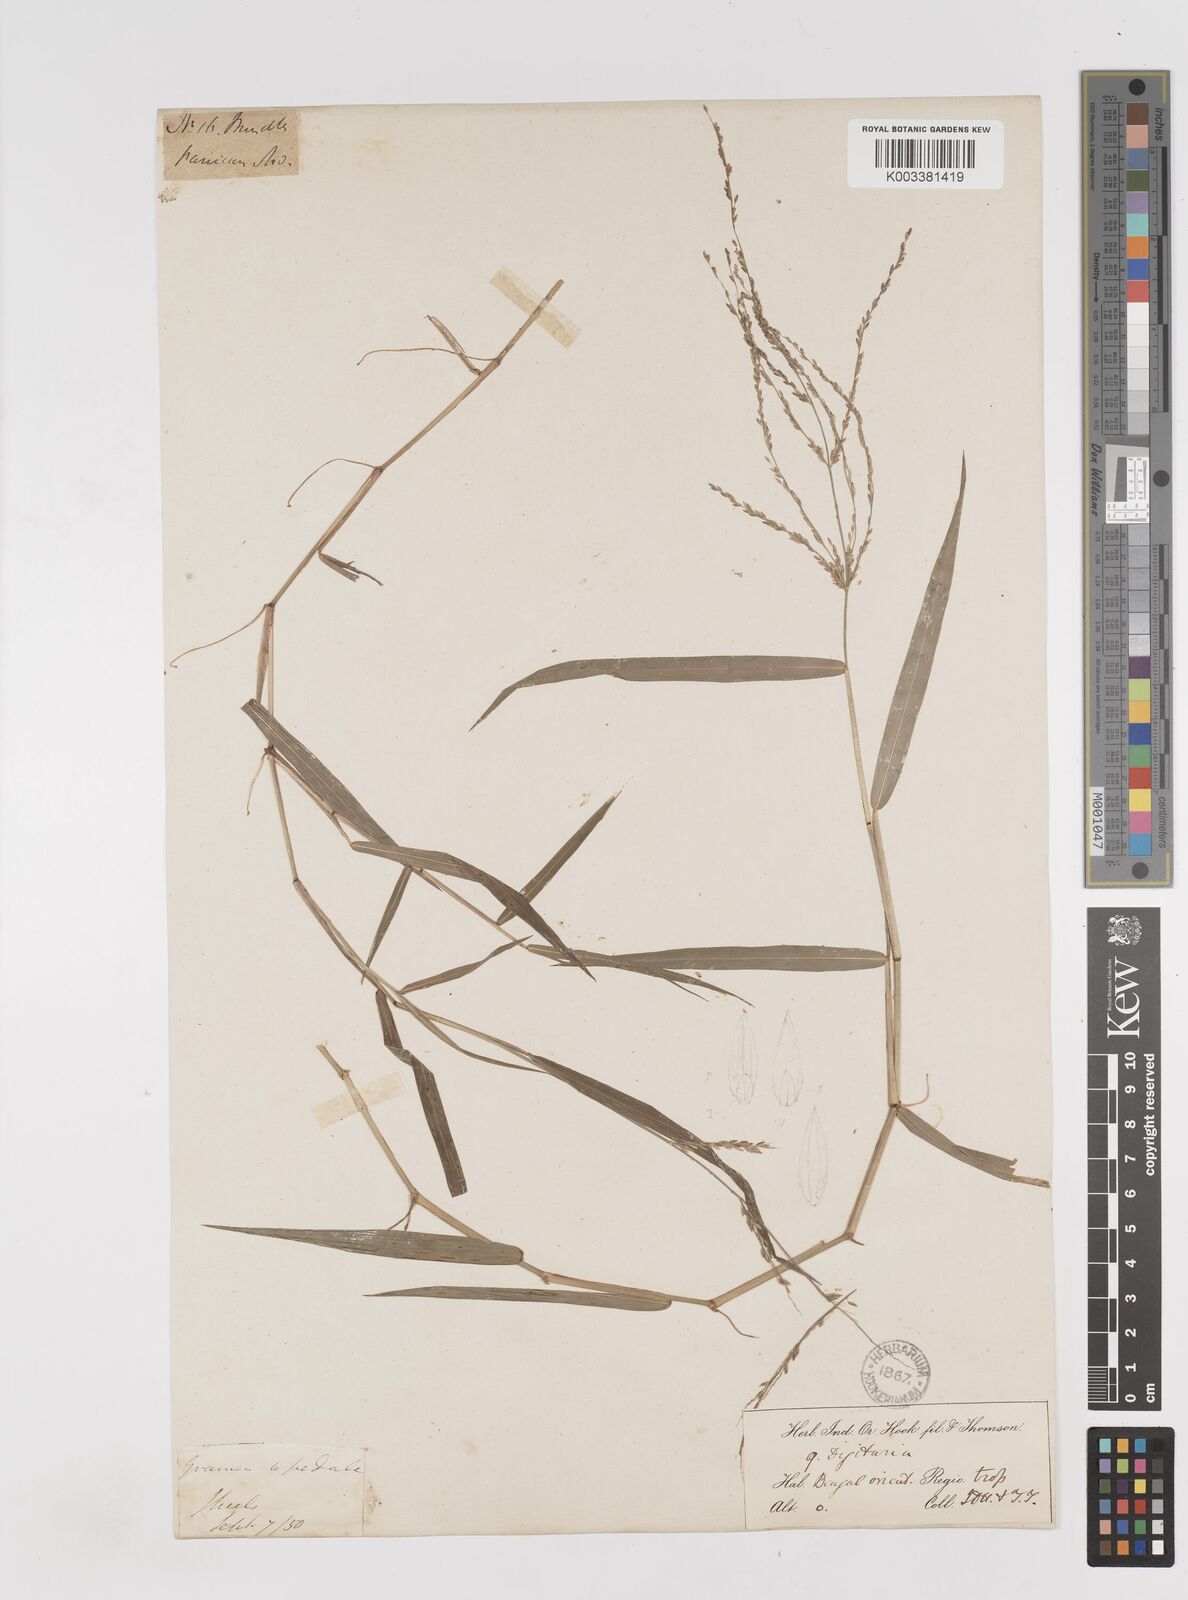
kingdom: Plantae
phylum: Tracheophyta
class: Liliopsida
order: Poales
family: Poaceae
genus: Ottochloa
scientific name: Ottochloa nodosa
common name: Slender-panic grass
